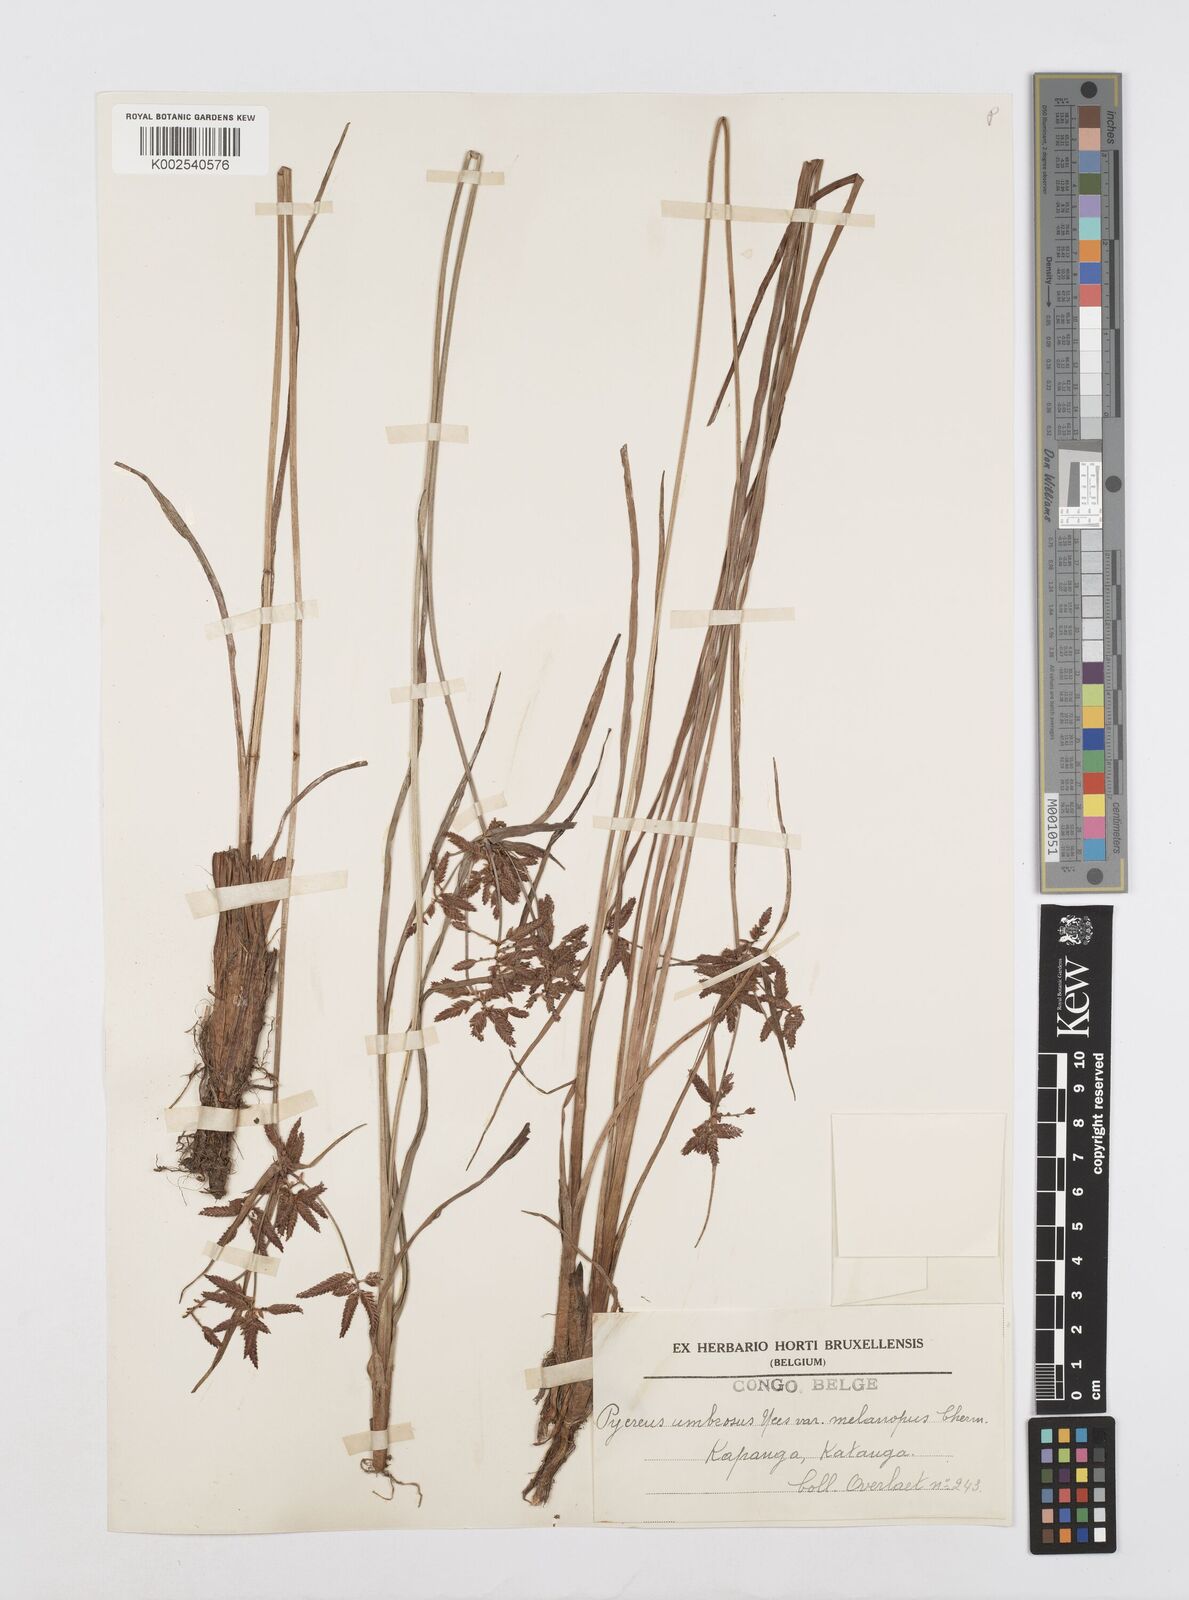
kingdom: Plantae
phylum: Tracheophyta
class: Liliopsida
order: Poales
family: Cyperaceae
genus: Cyperus
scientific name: Cyperus nitidus
